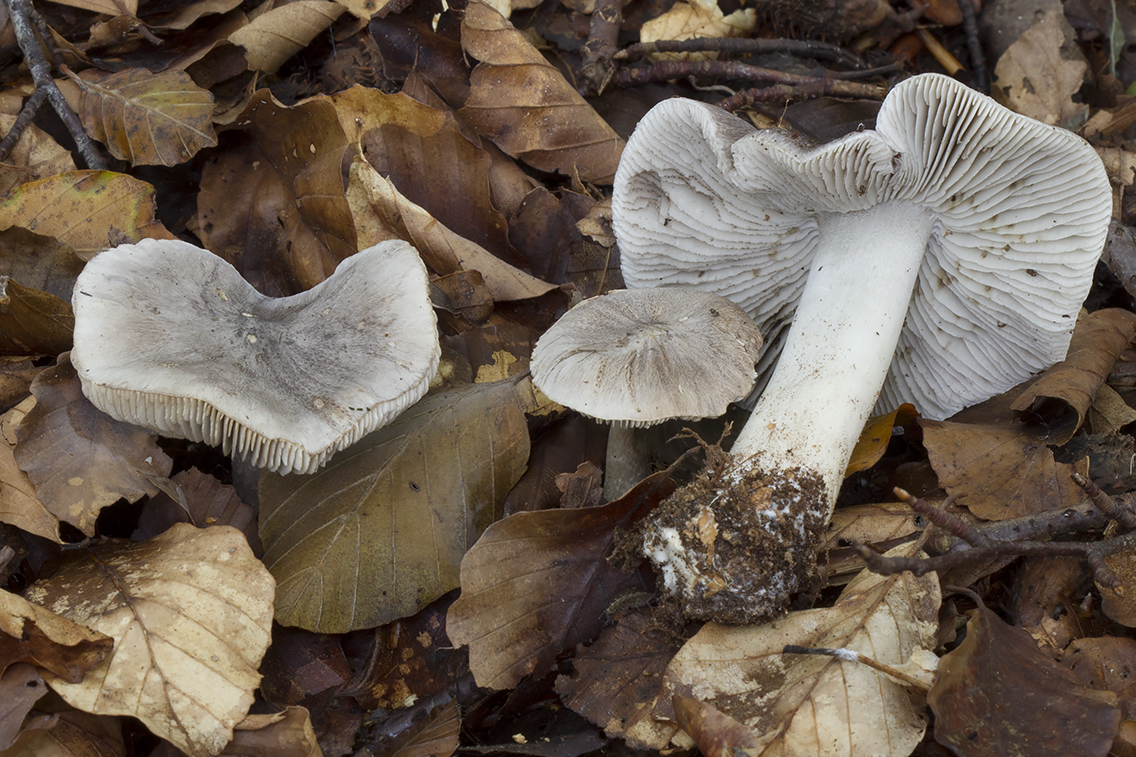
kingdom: Fungi
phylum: Basidiomycota
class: Agaricomycetes
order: Agaricales
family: Tricholomataceae
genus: Tricholoma
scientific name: Tricholoma sciodes
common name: stribet ridderhat
